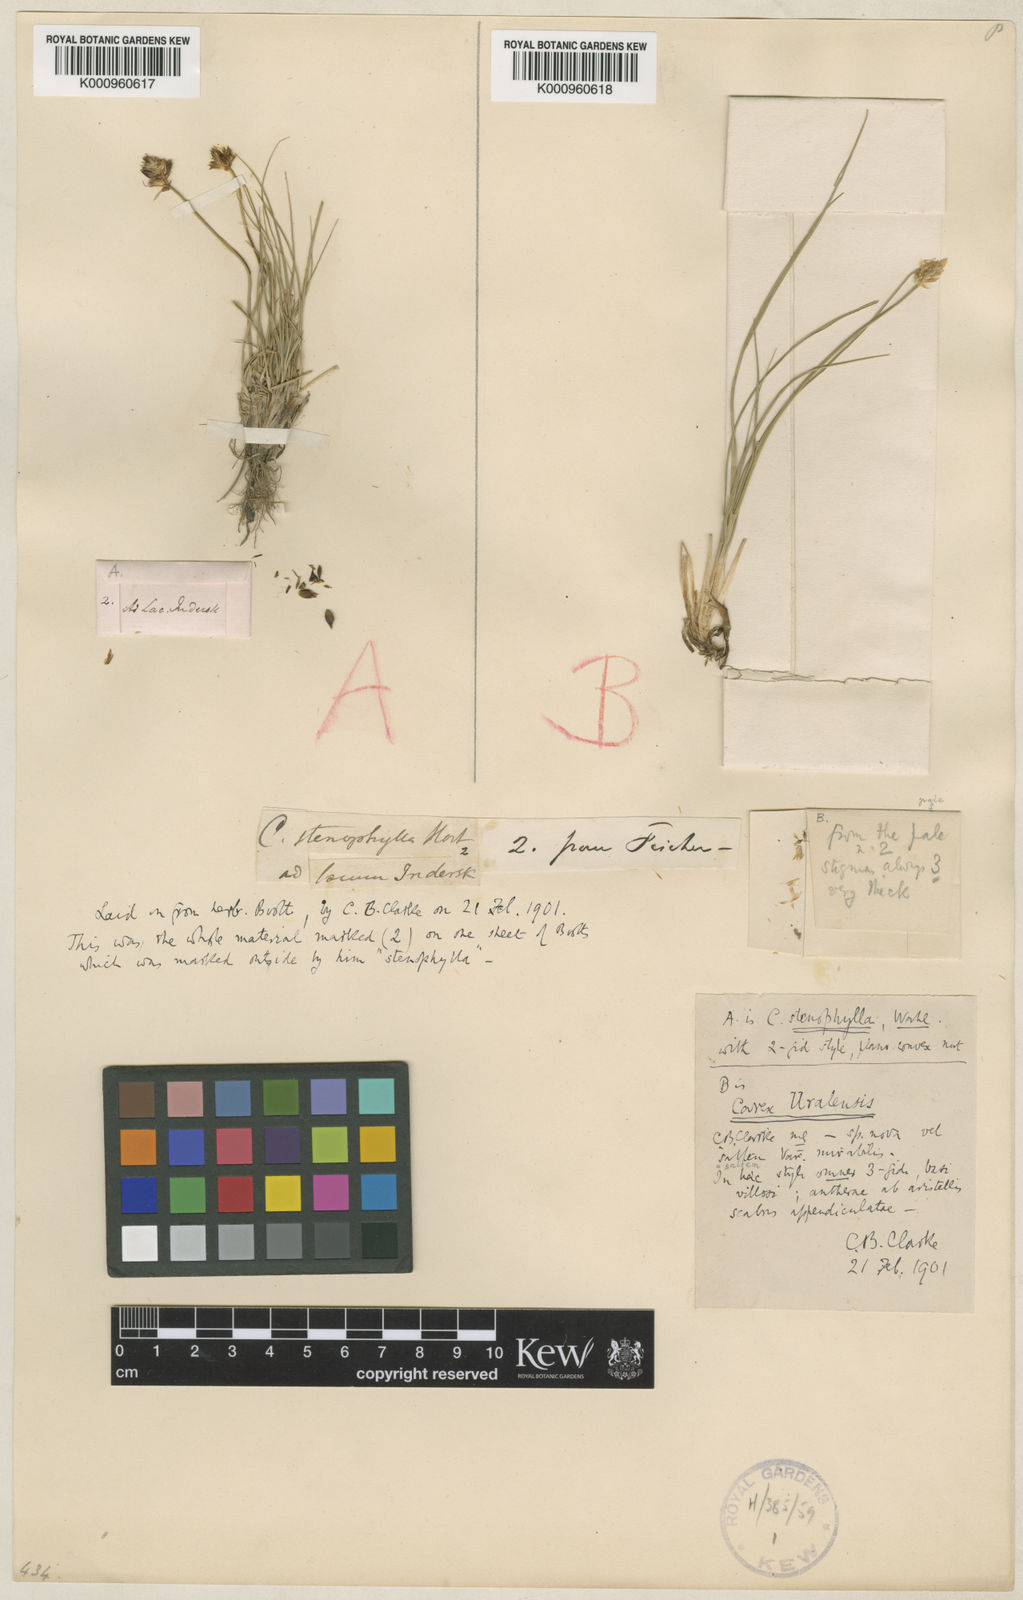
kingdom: Plantae
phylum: Tracheophyta
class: Liliopsida
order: Poales
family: Cyperaceae
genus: Carex
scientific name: Carex stenophylla
